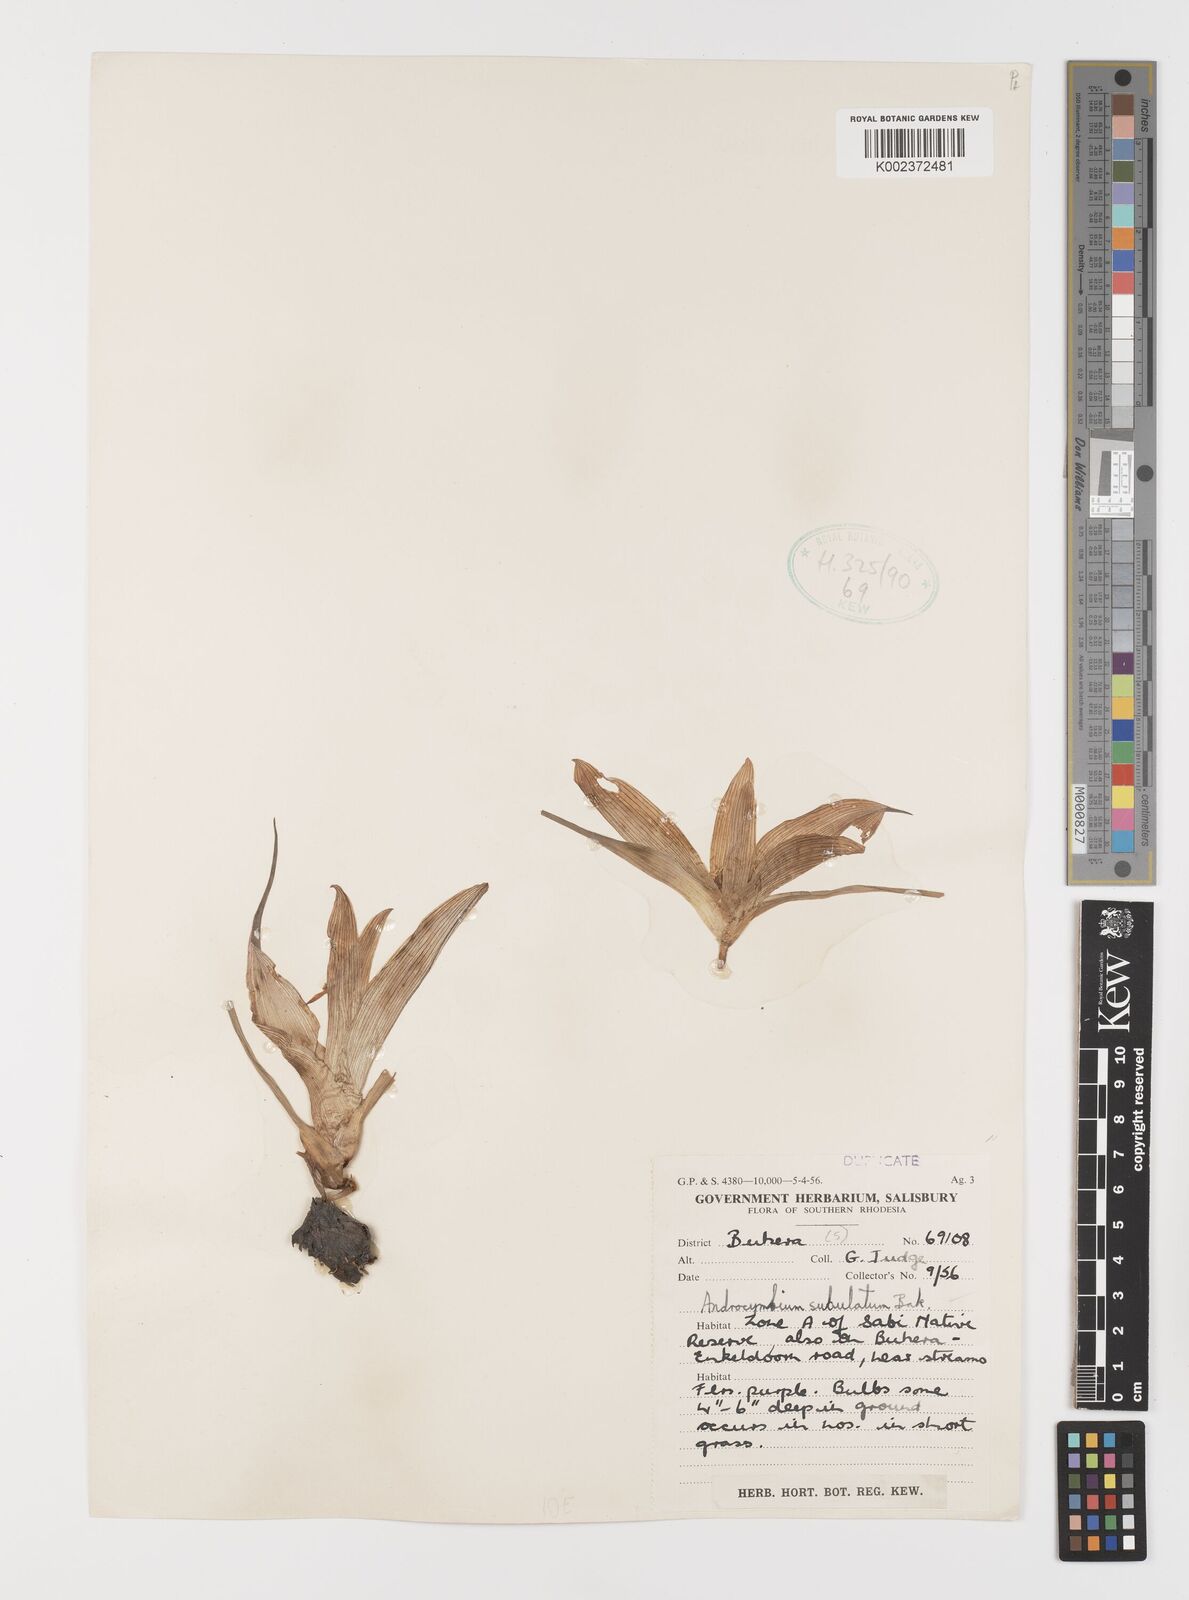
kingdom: Plantae
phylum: Tracheophyta
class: Liliopsida
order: Liliales
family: Colchicaceae
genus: Colchicum
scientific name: Colchicum melanthioides
